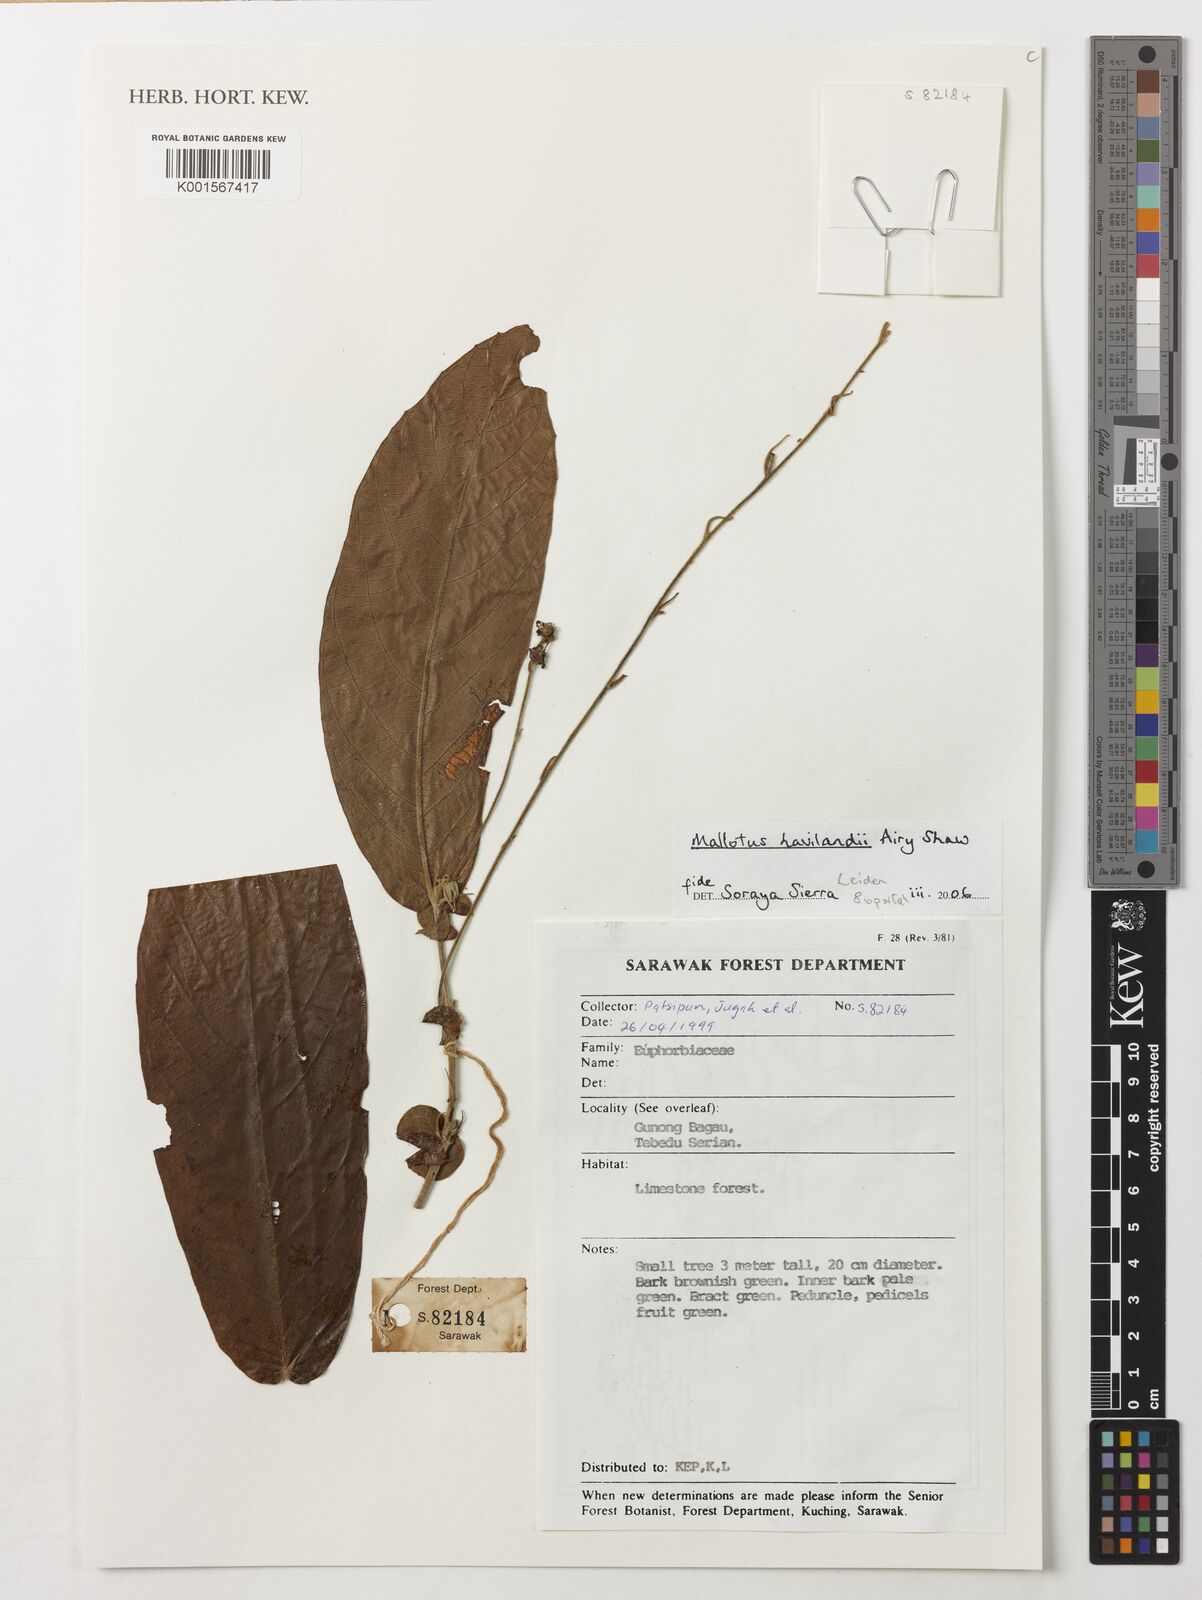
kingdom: Plantae
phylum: Tracheophyta
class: Magnoliopsida
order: Malpighiales
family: Euphorbiaceae
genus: Mallotus
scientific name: Mallotus havilandii
